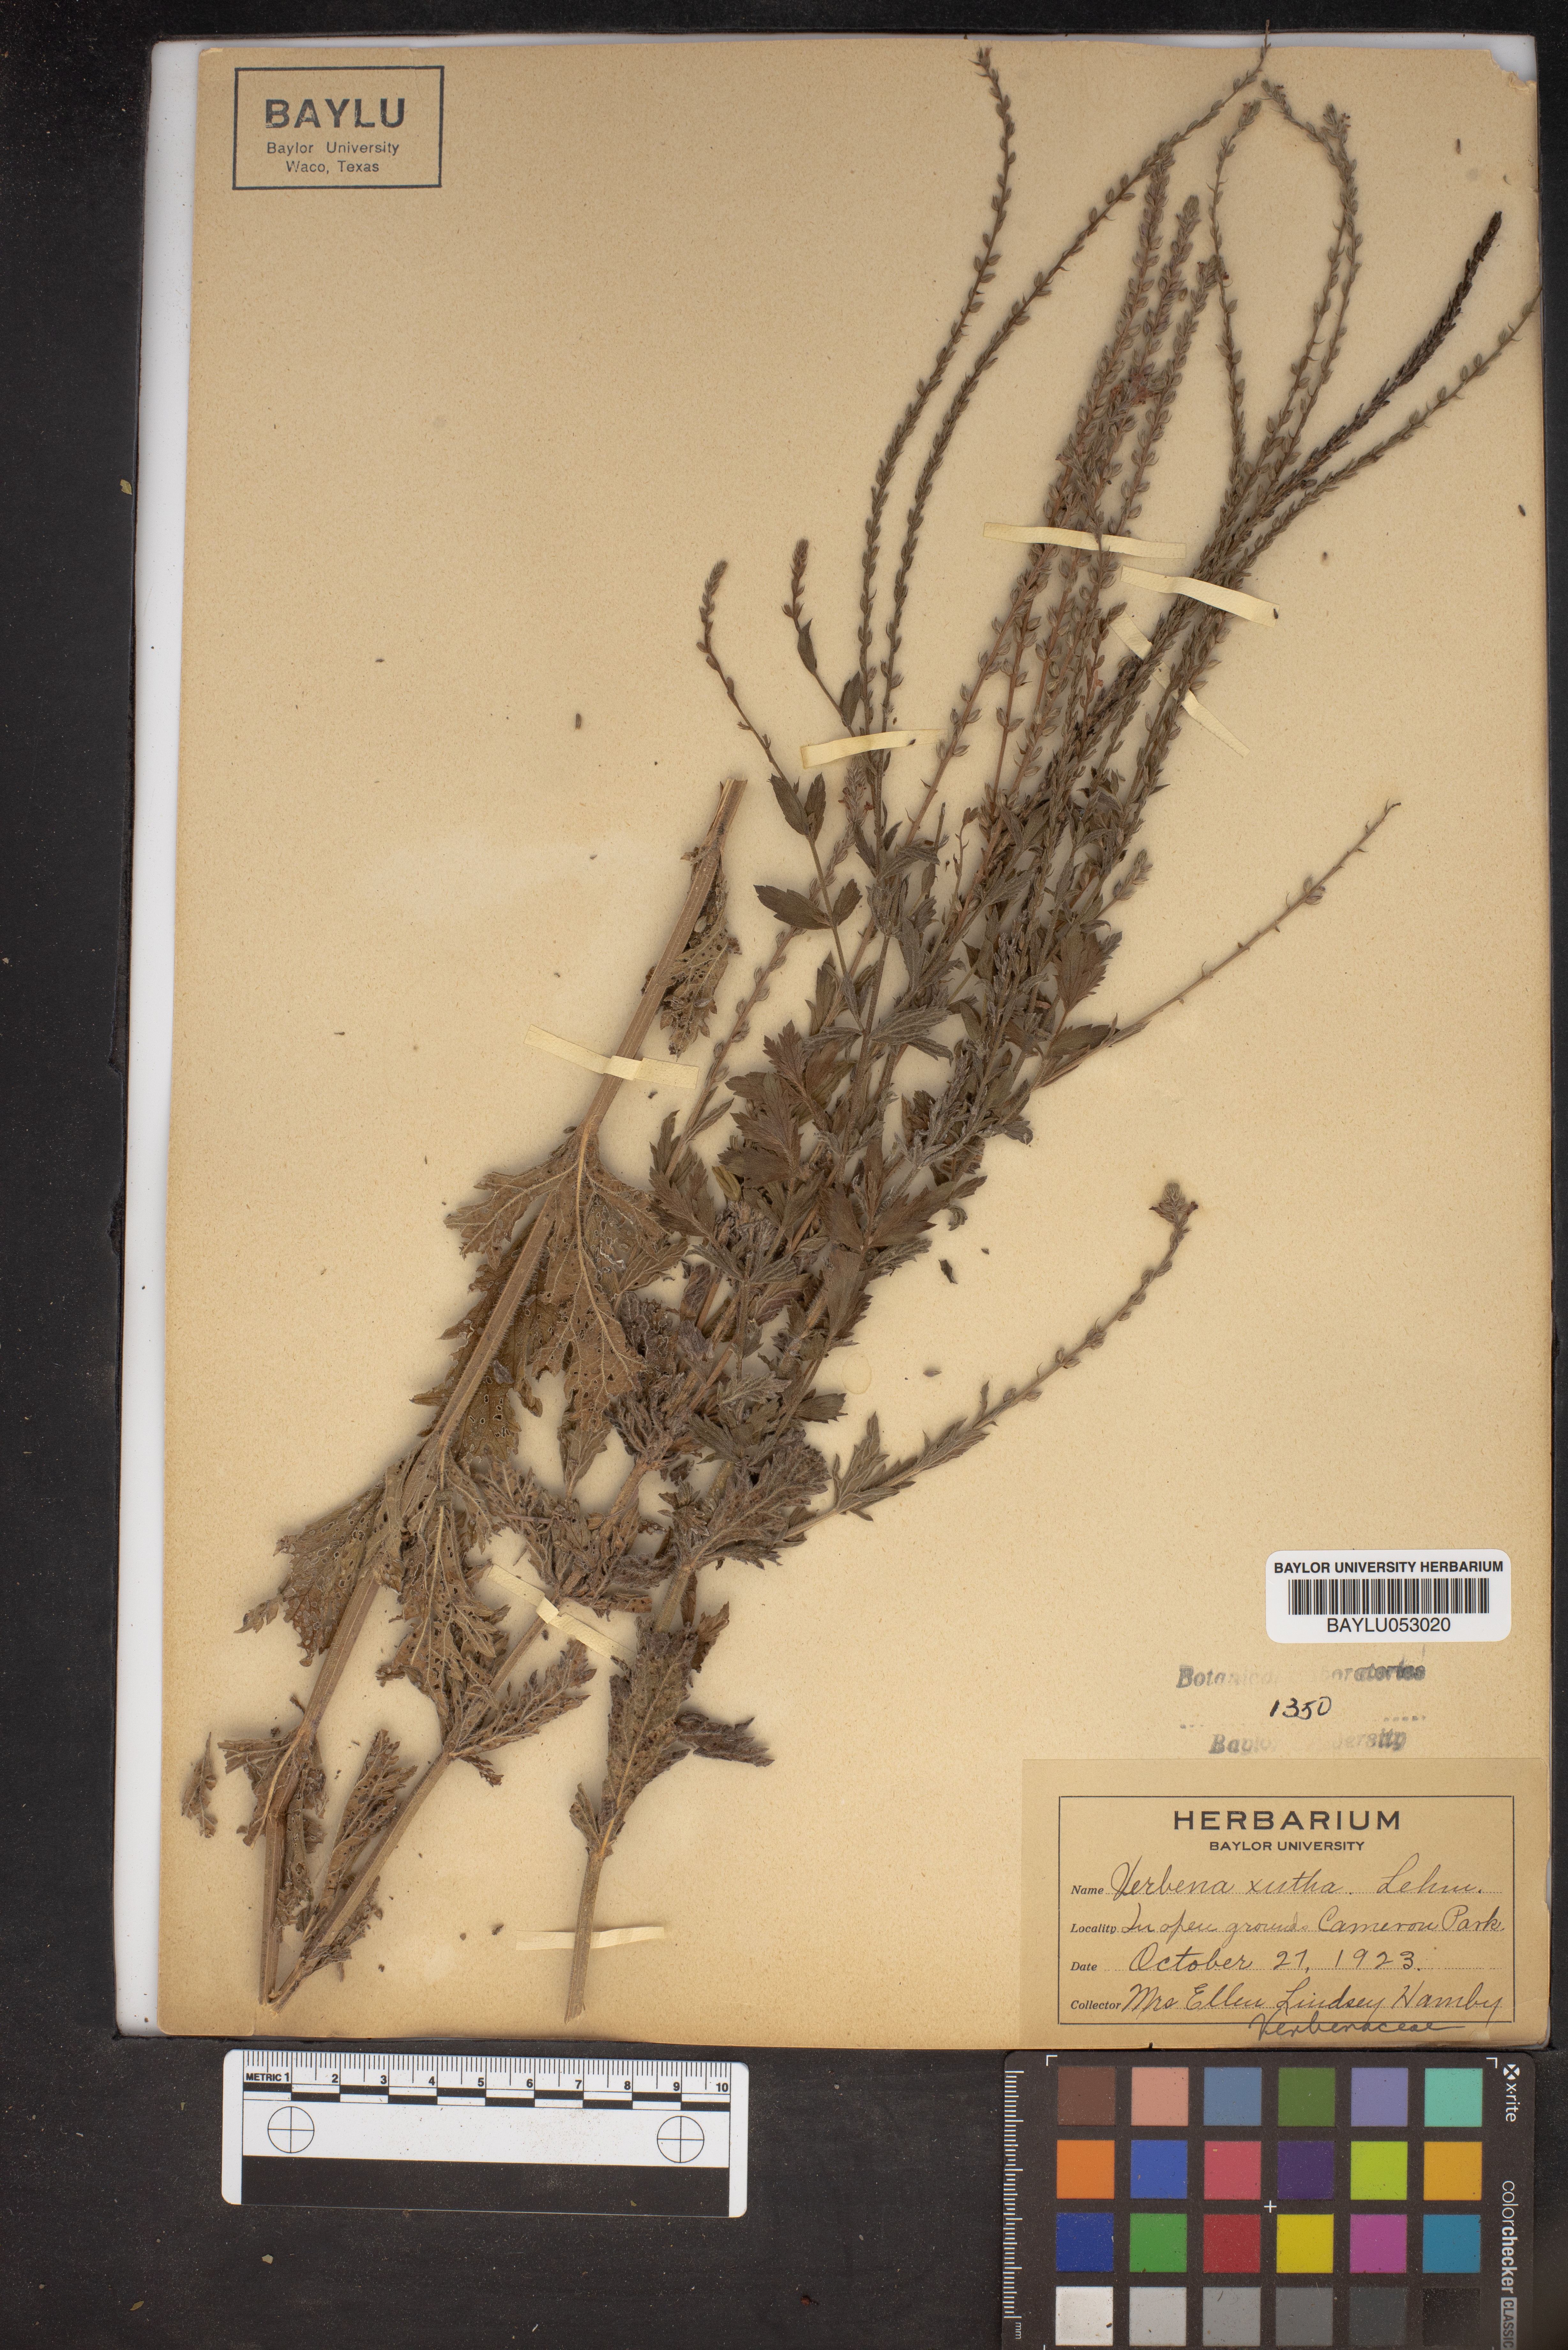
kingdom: Plantae
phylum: Tracheophyta
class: Magnoliopsida
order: Lamiales
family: Verbenaceae
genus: Verbena
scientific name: Verbena xutha
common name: Gulf vervain
